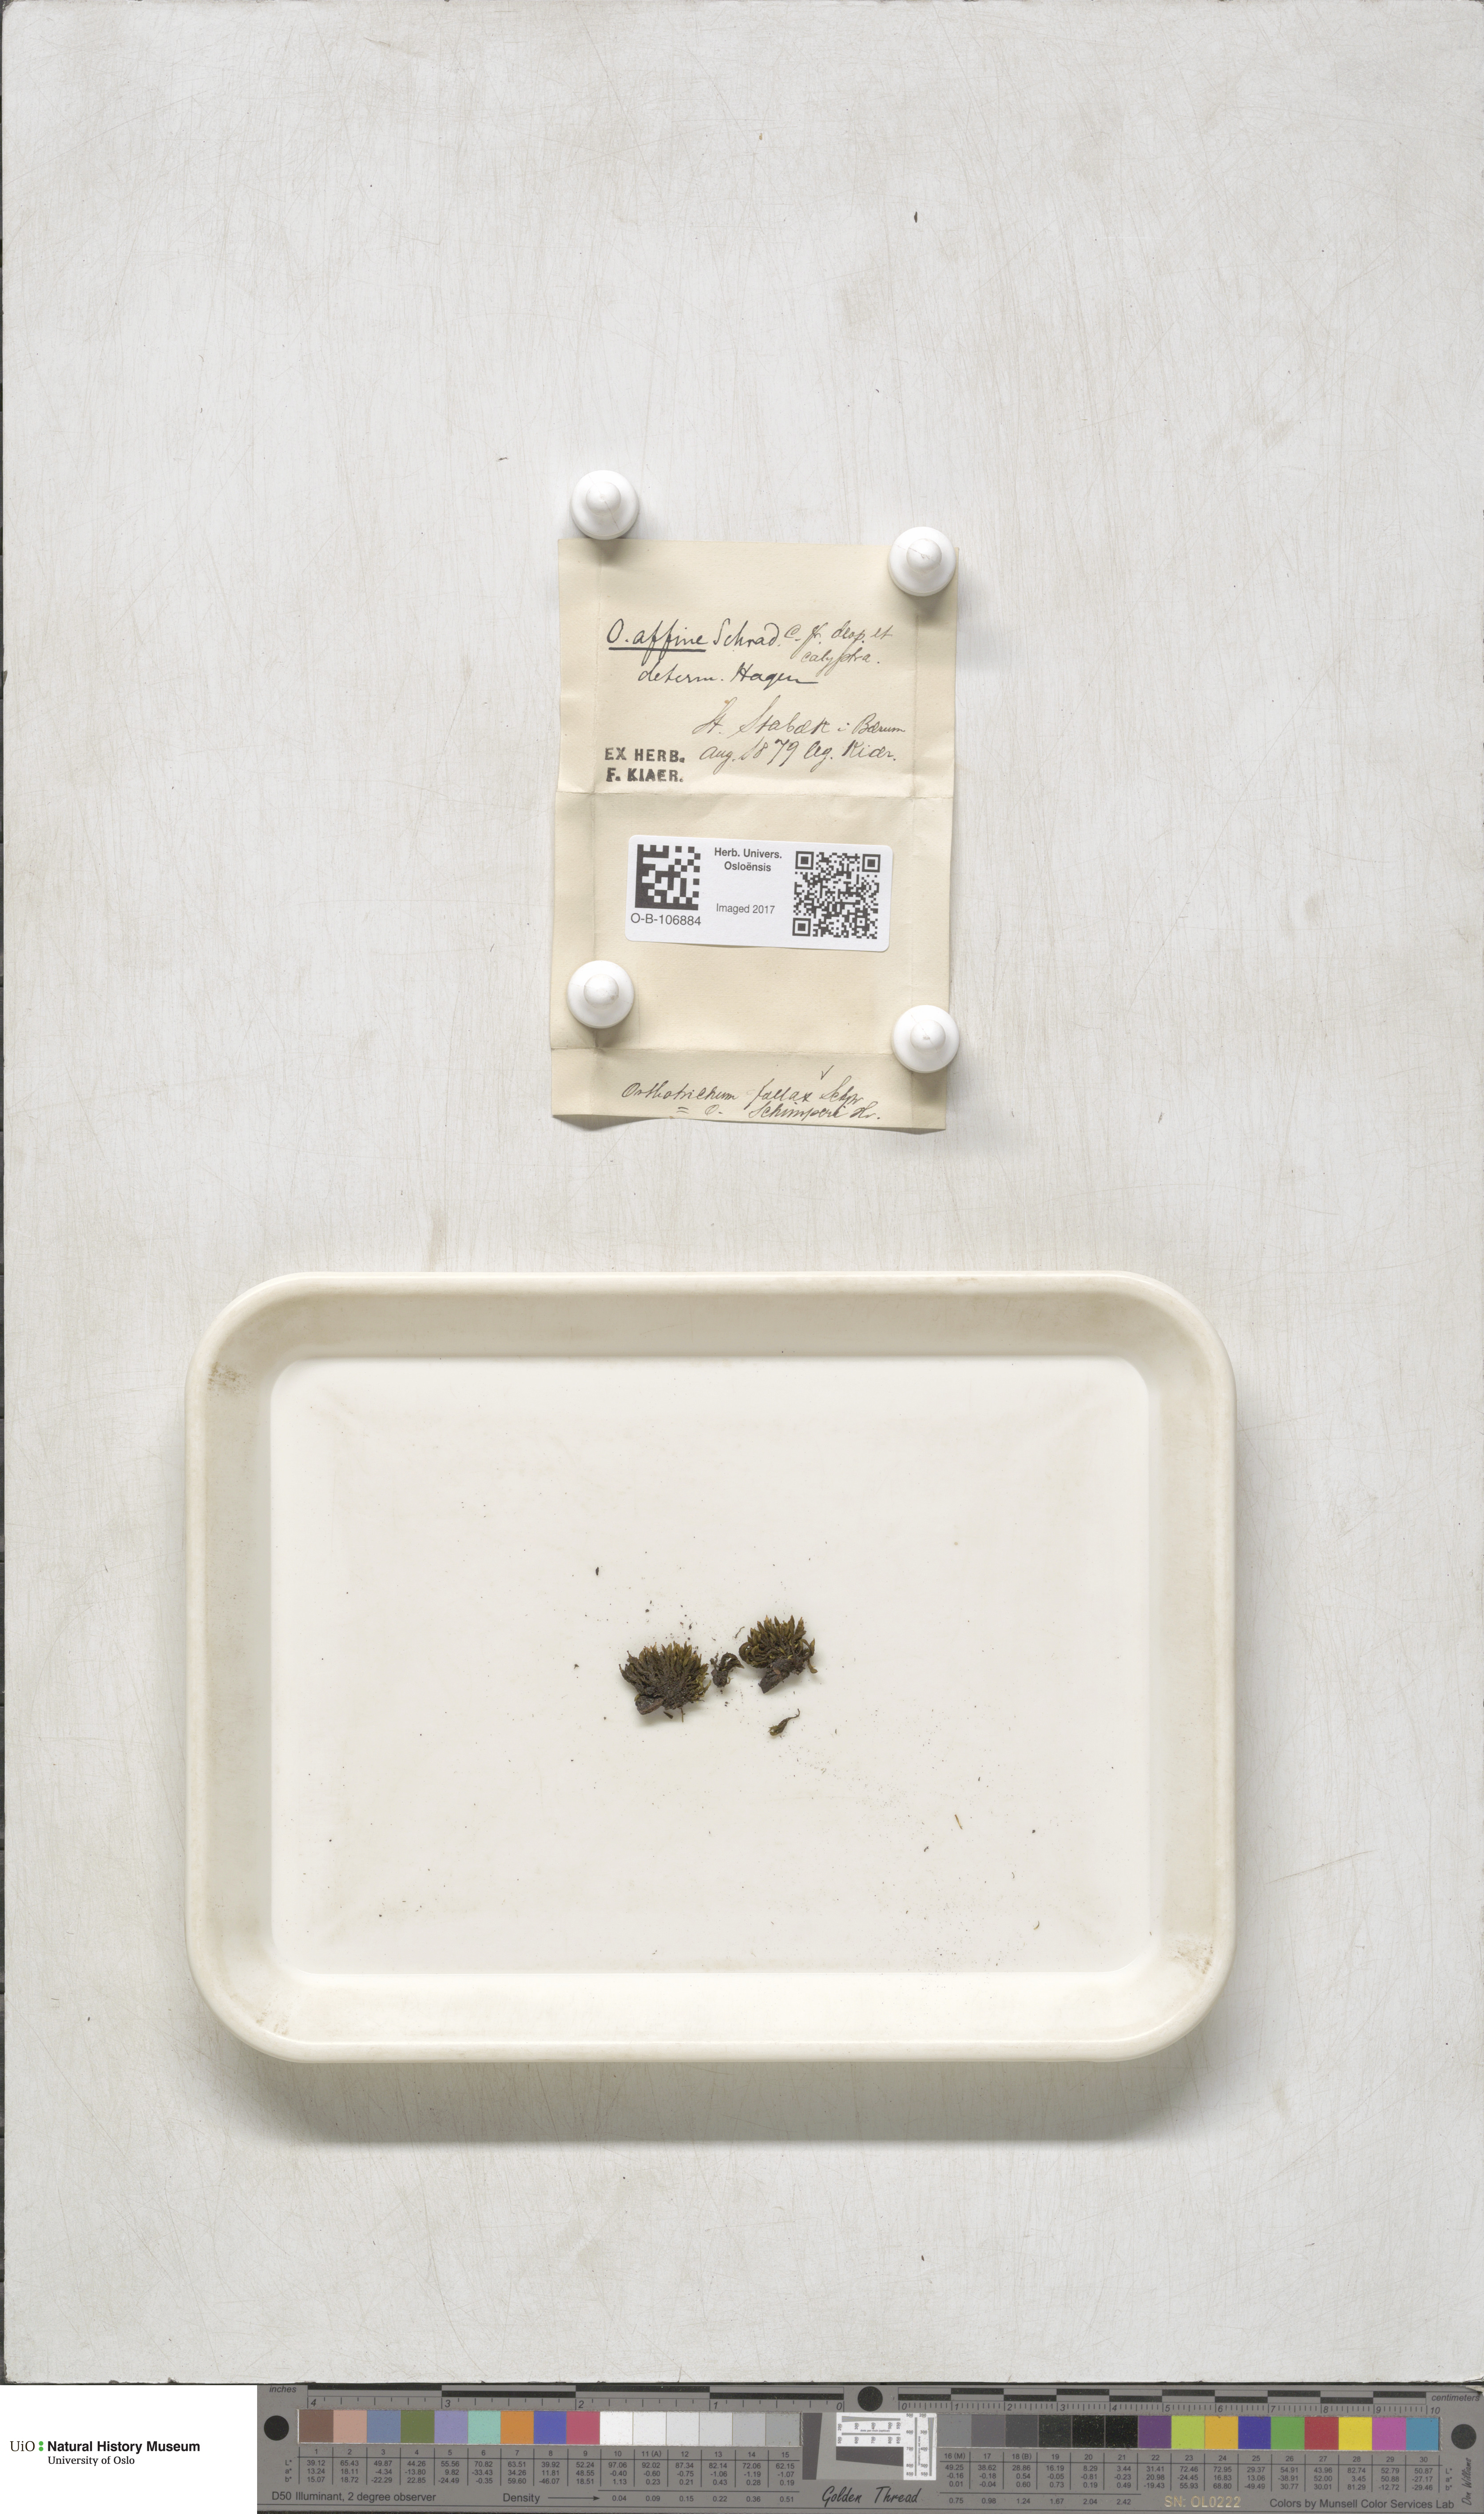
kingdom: Plantae
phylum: Bryophyta
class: Bryopsida
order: Orthotrichales
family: Orthotrichaceae
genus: Lewinskya
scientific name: Lewinskya affinis
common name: Wood bristle-moss
